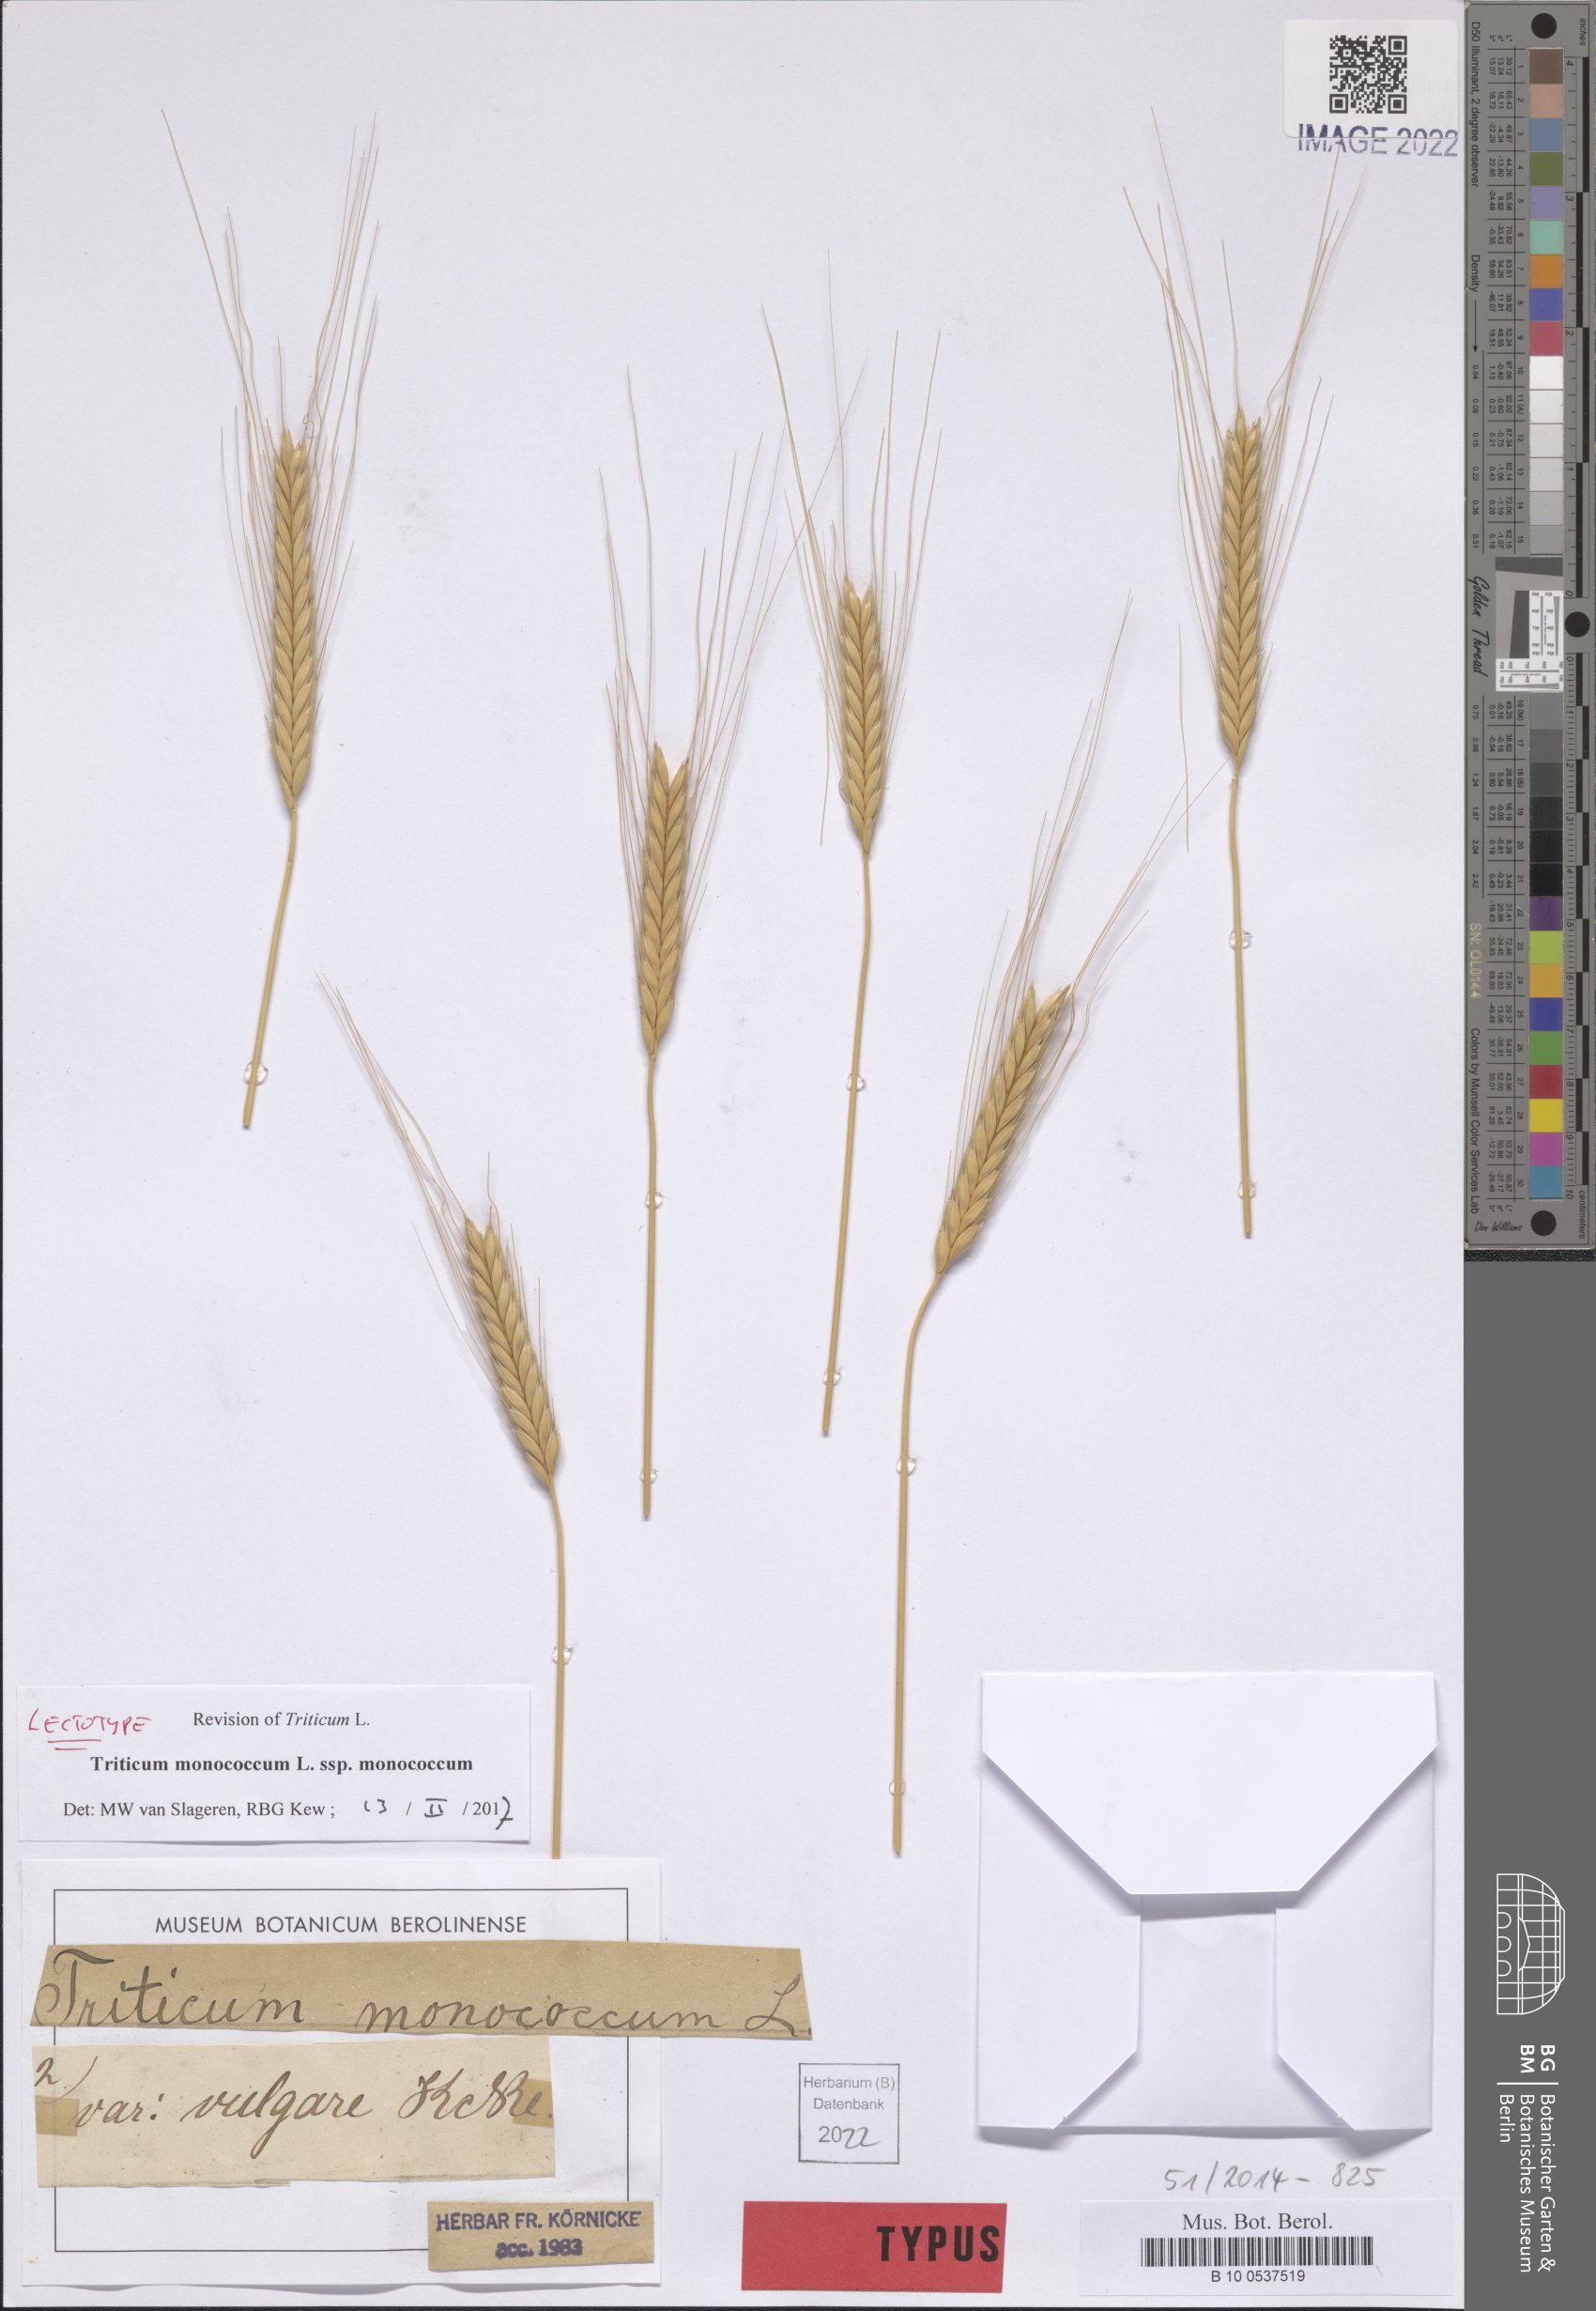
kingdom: Plantae
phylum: Tracheophyta
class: Liliopsida
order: Poales
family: Poaceae
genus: Triticum
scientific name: Triticum monococcum
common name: Einkorn
